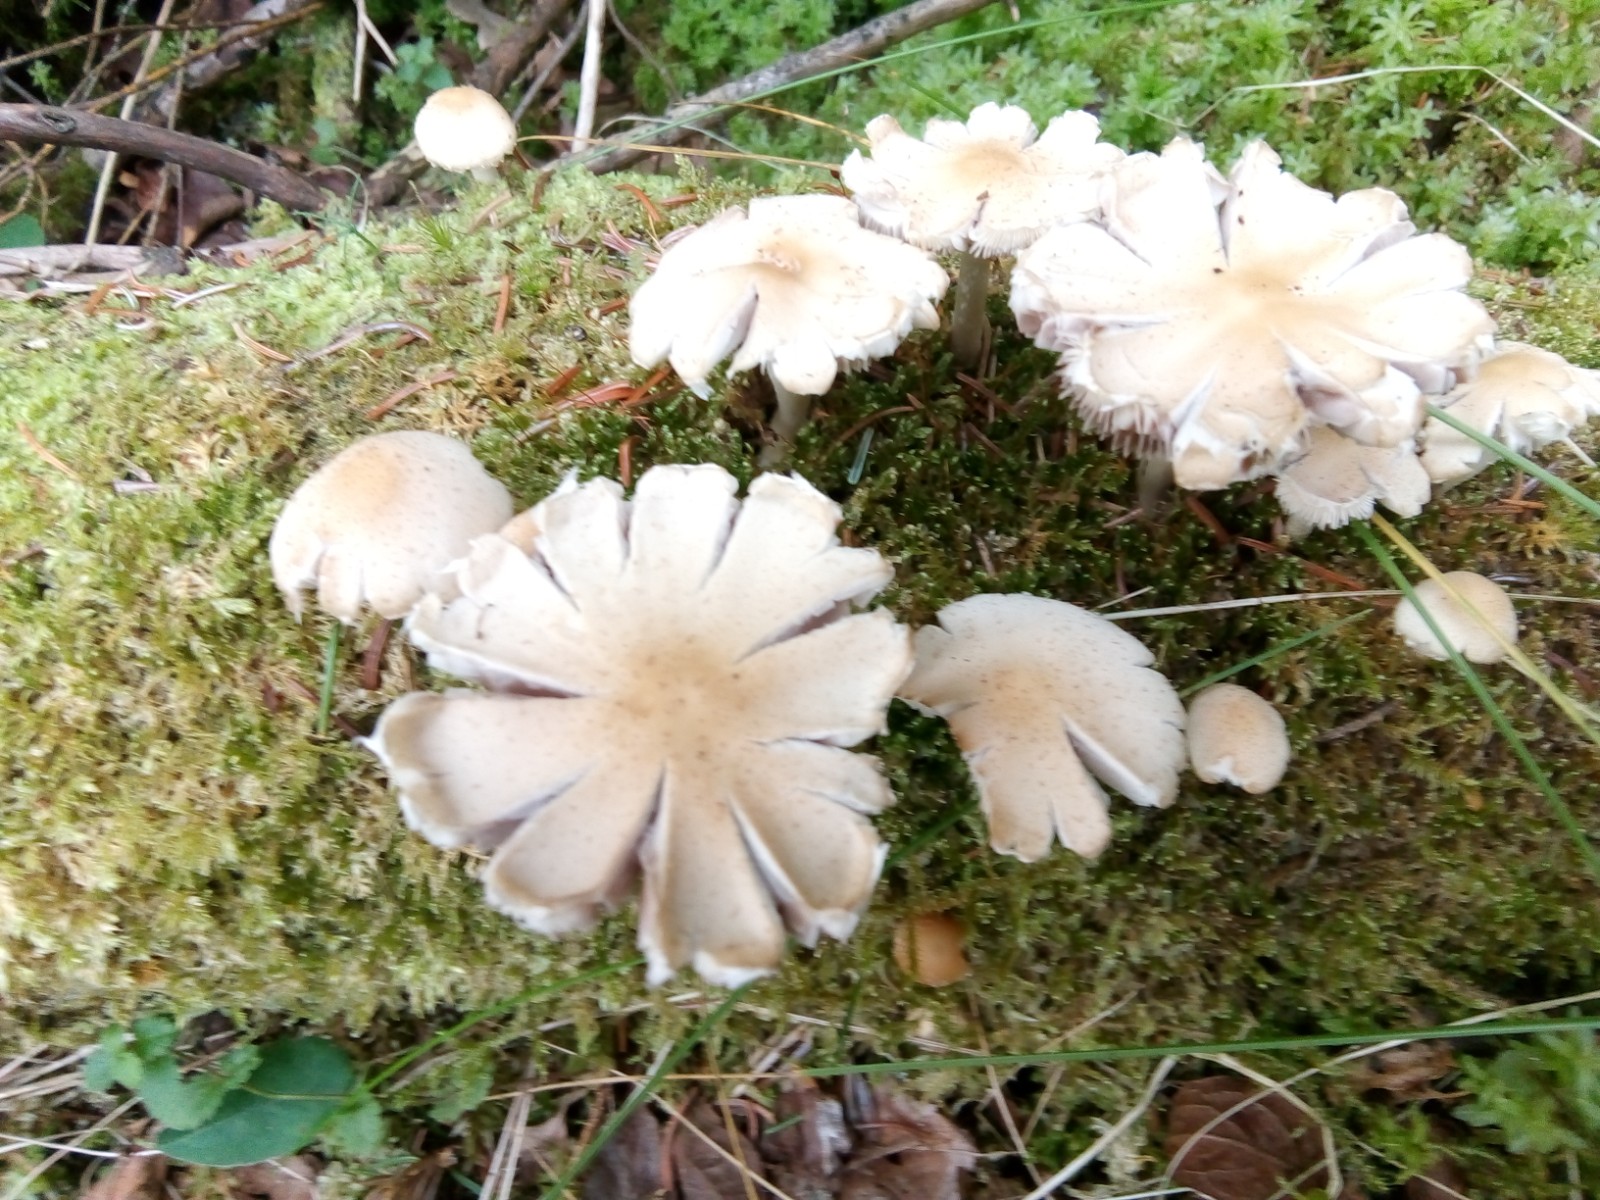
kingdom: Fungi
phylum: Basidiomycota
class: Agaricomycetes
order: Agaricales
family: Psathyrellaceae
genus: Candolleomyces
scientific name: Candolleomyces candolleanus
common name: Candolles mørkhat
